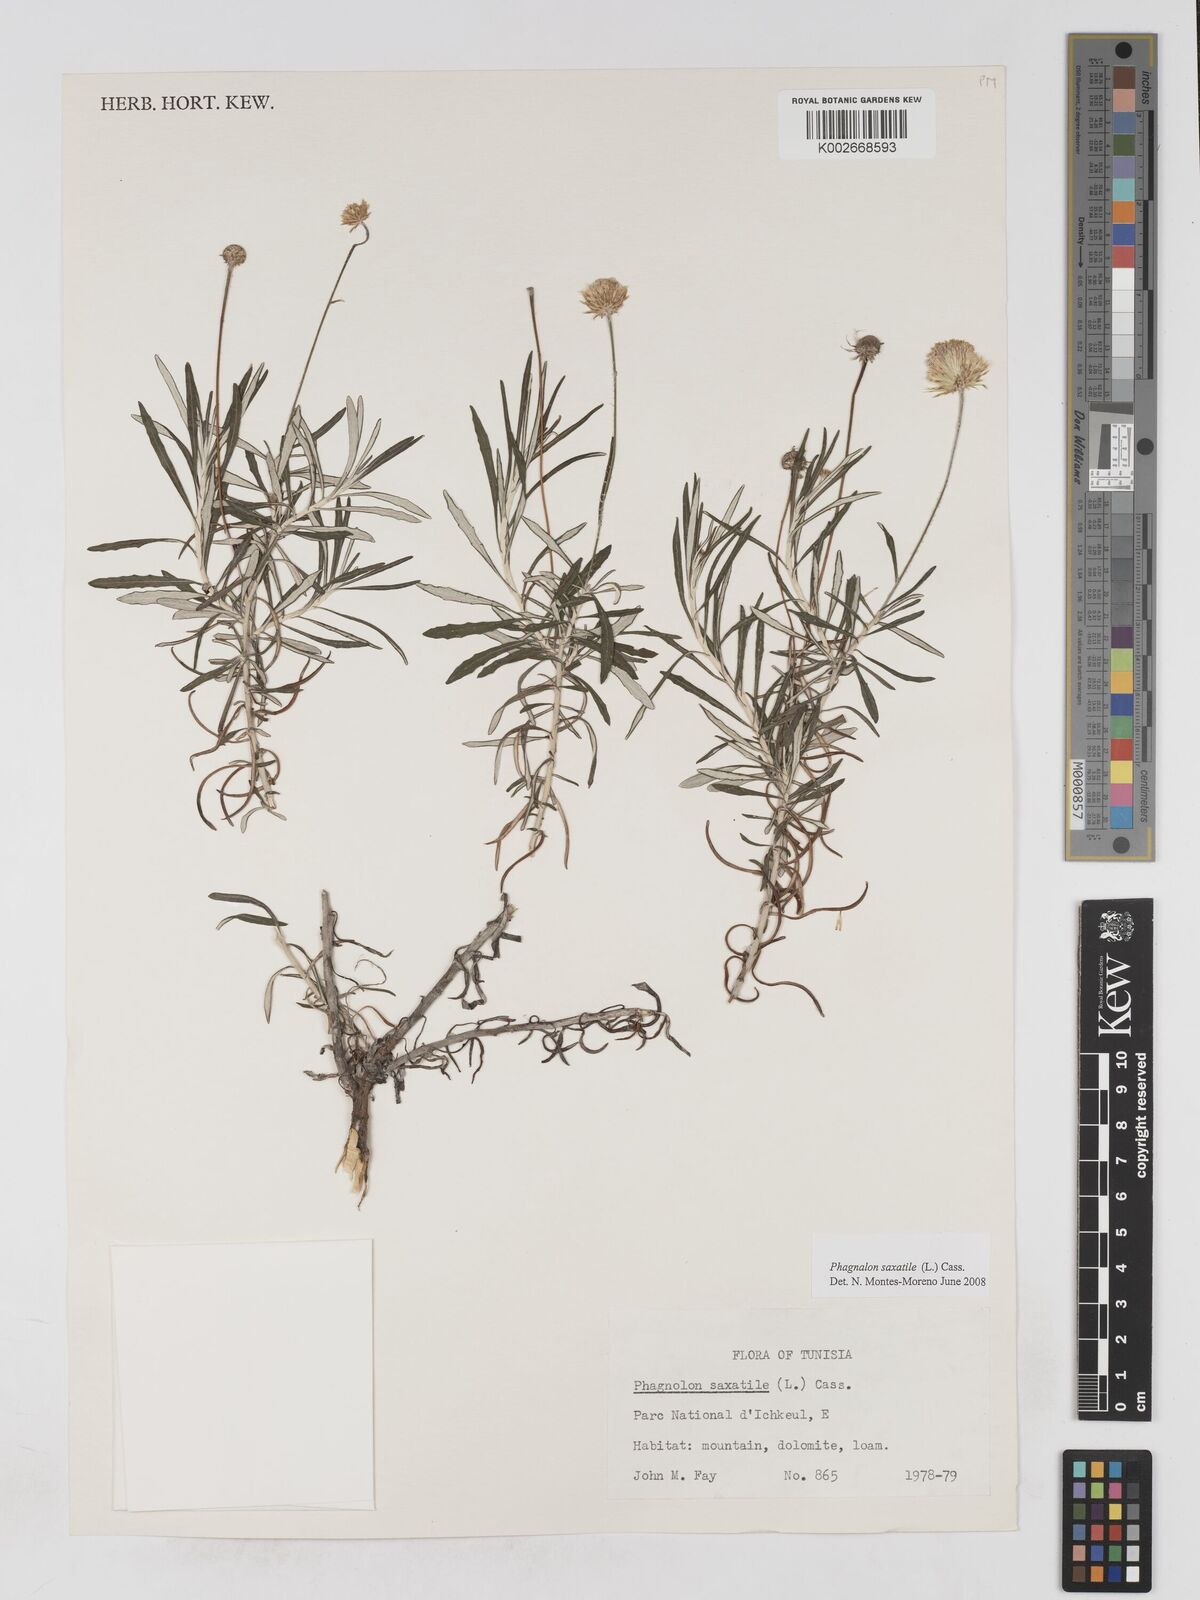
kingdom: Plantae
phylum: Tracheophyta
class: Magnoliopsida
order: Asterales
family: Asteraceae
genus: Phagnalon
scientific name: Phagnalon saxatile
